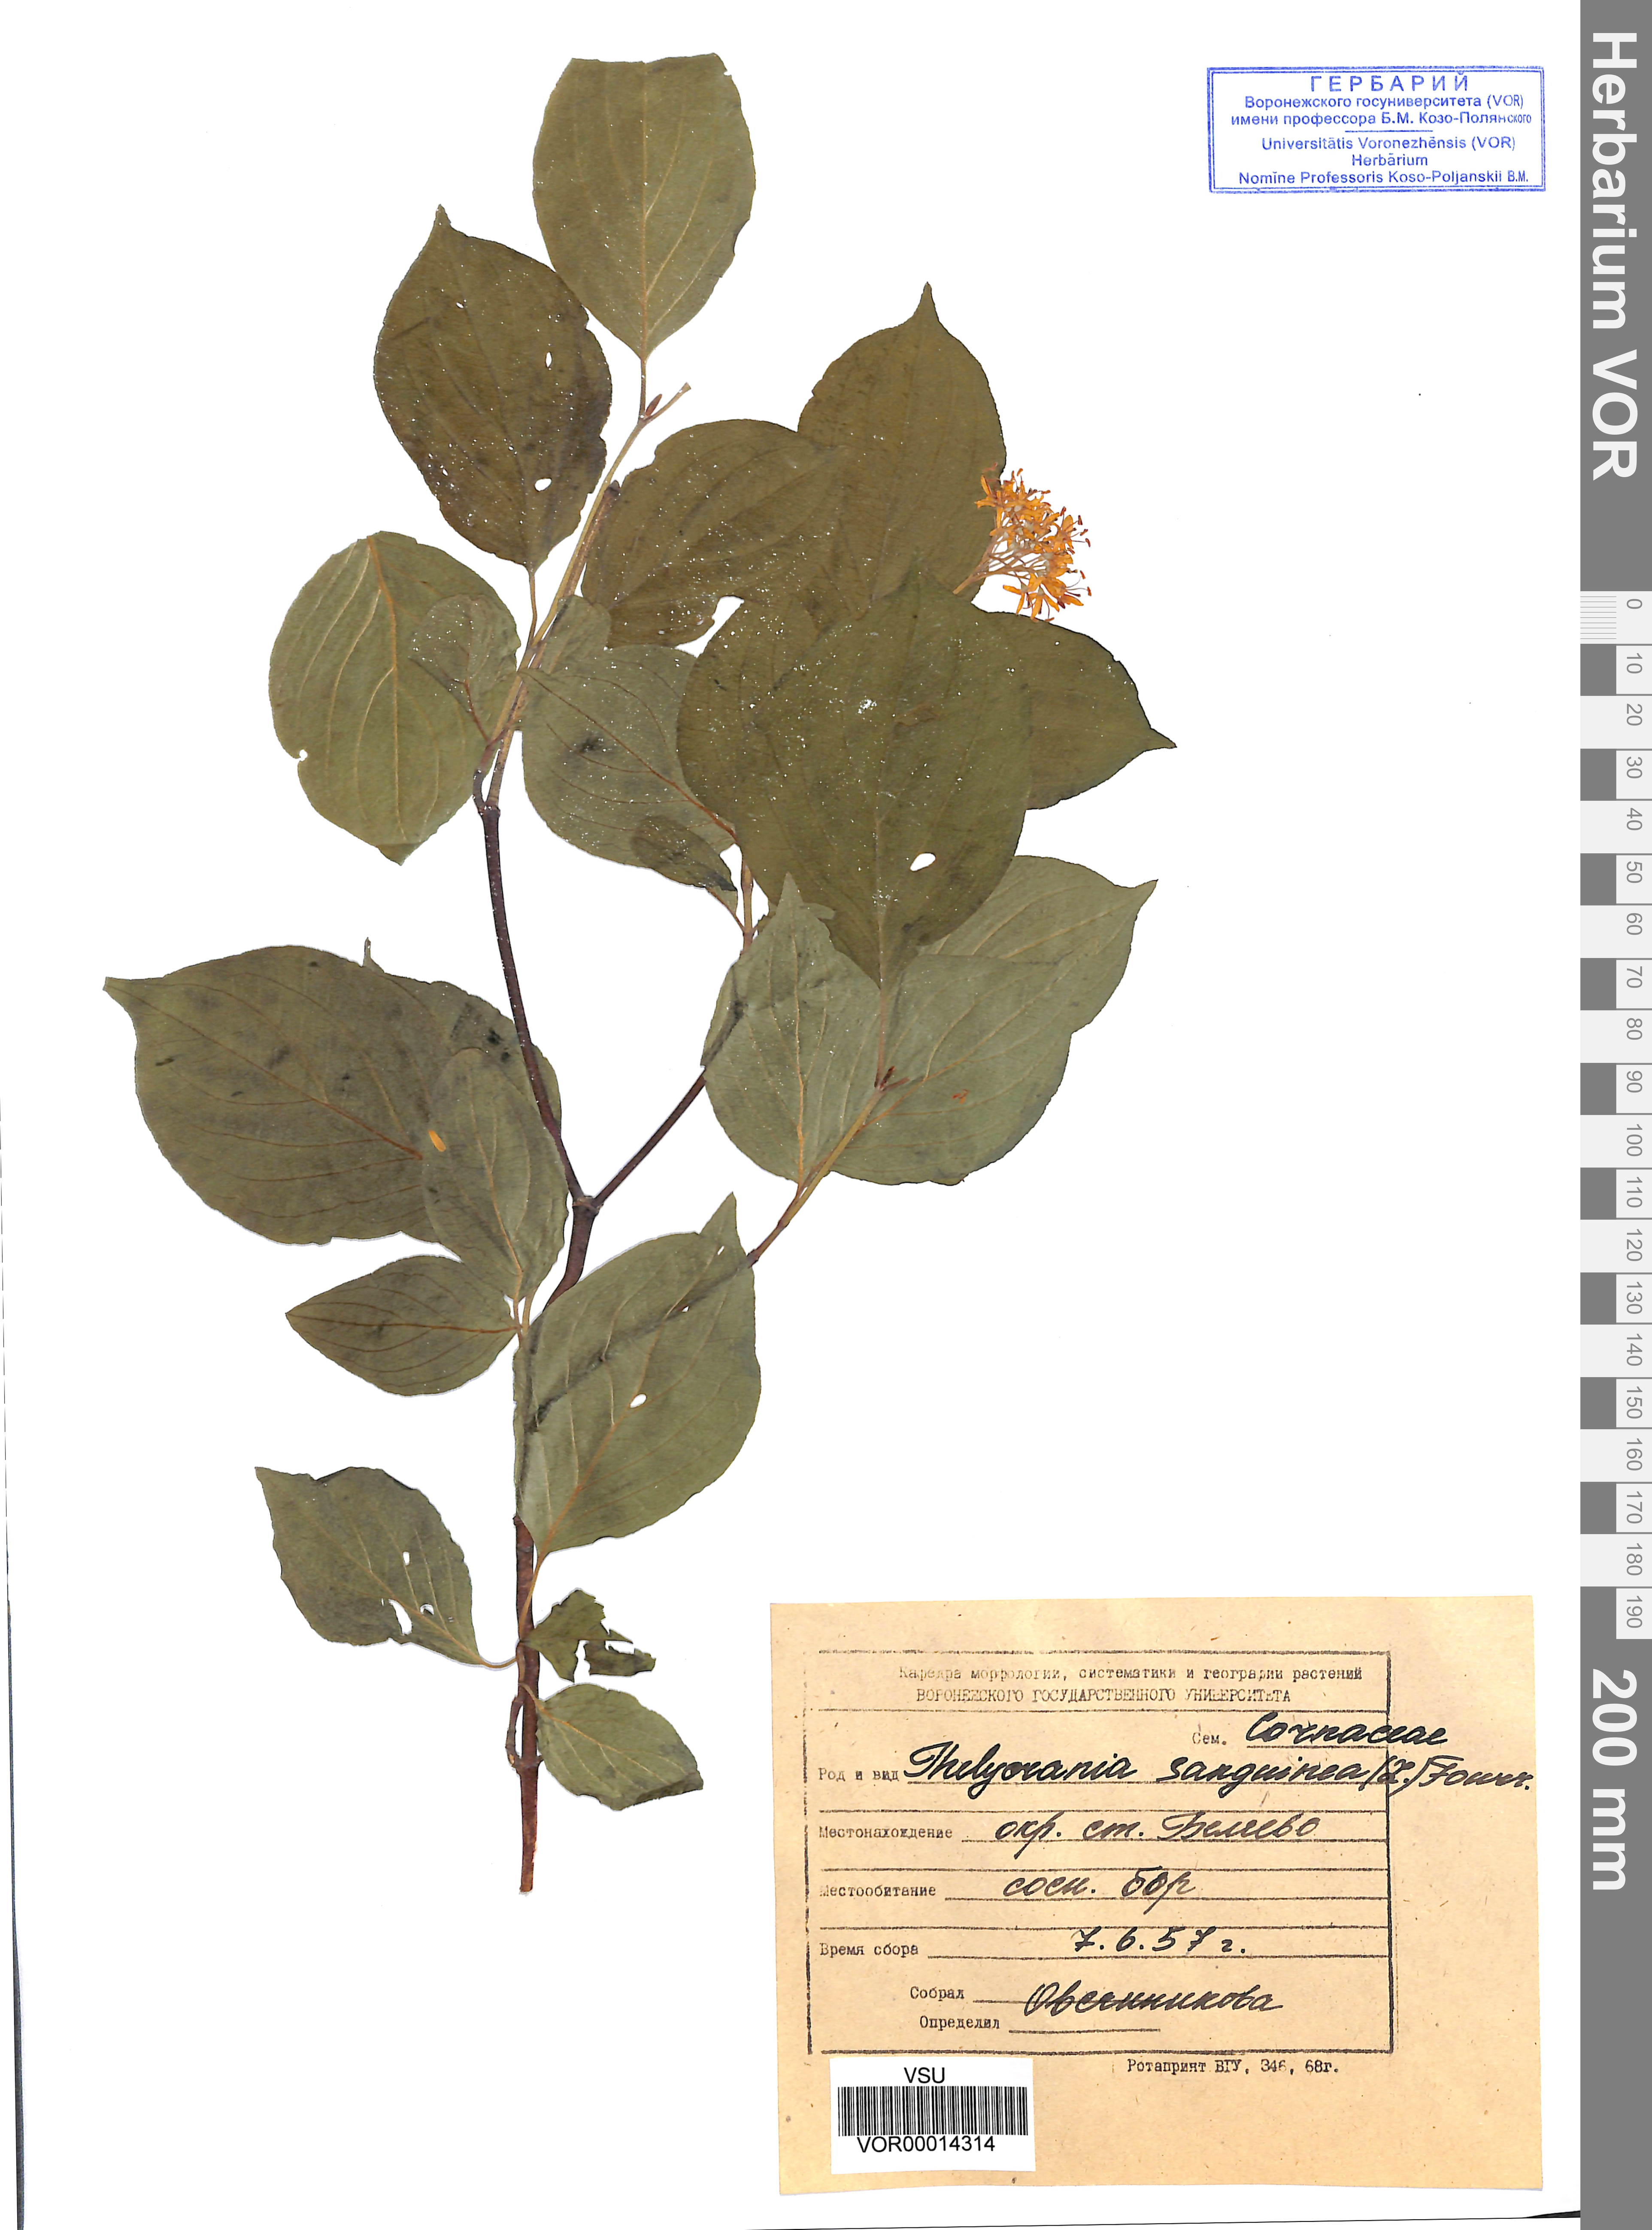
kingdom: Plantae
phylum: Tracheophyta
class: Magnoliopsida
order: Cornales
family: Cornaceae
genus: Cornus
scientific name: Cornus sanguinea
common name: Dogwood
